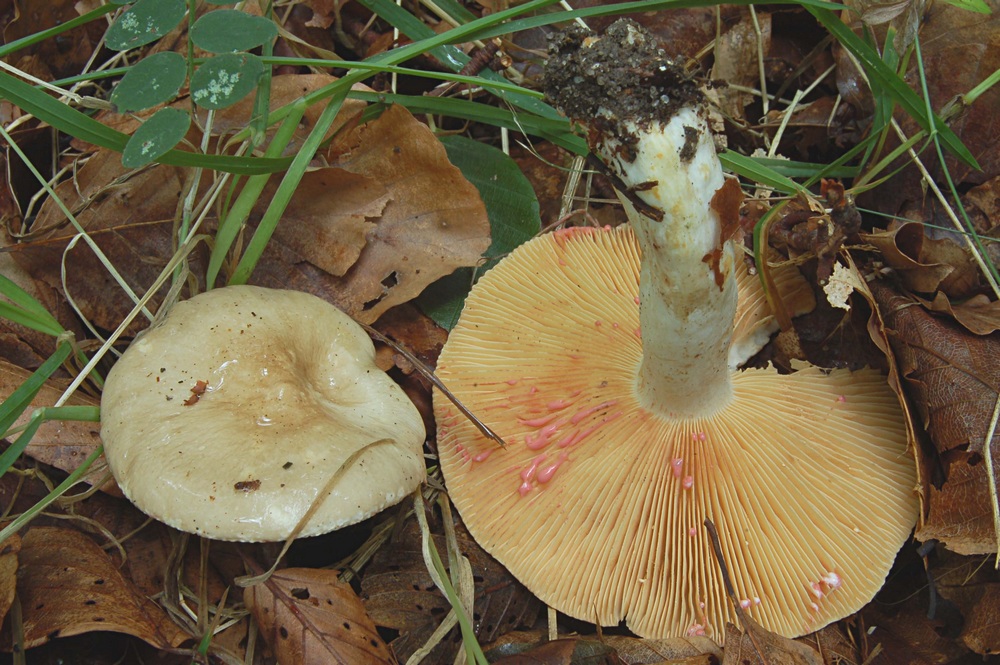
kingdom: Fungi
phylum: Basidiomycota
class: Agaricomycetes
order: Russulales
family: Russulaceae
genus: Lactarius
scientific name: Lactarius acris
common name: rosamælket mælkehat
